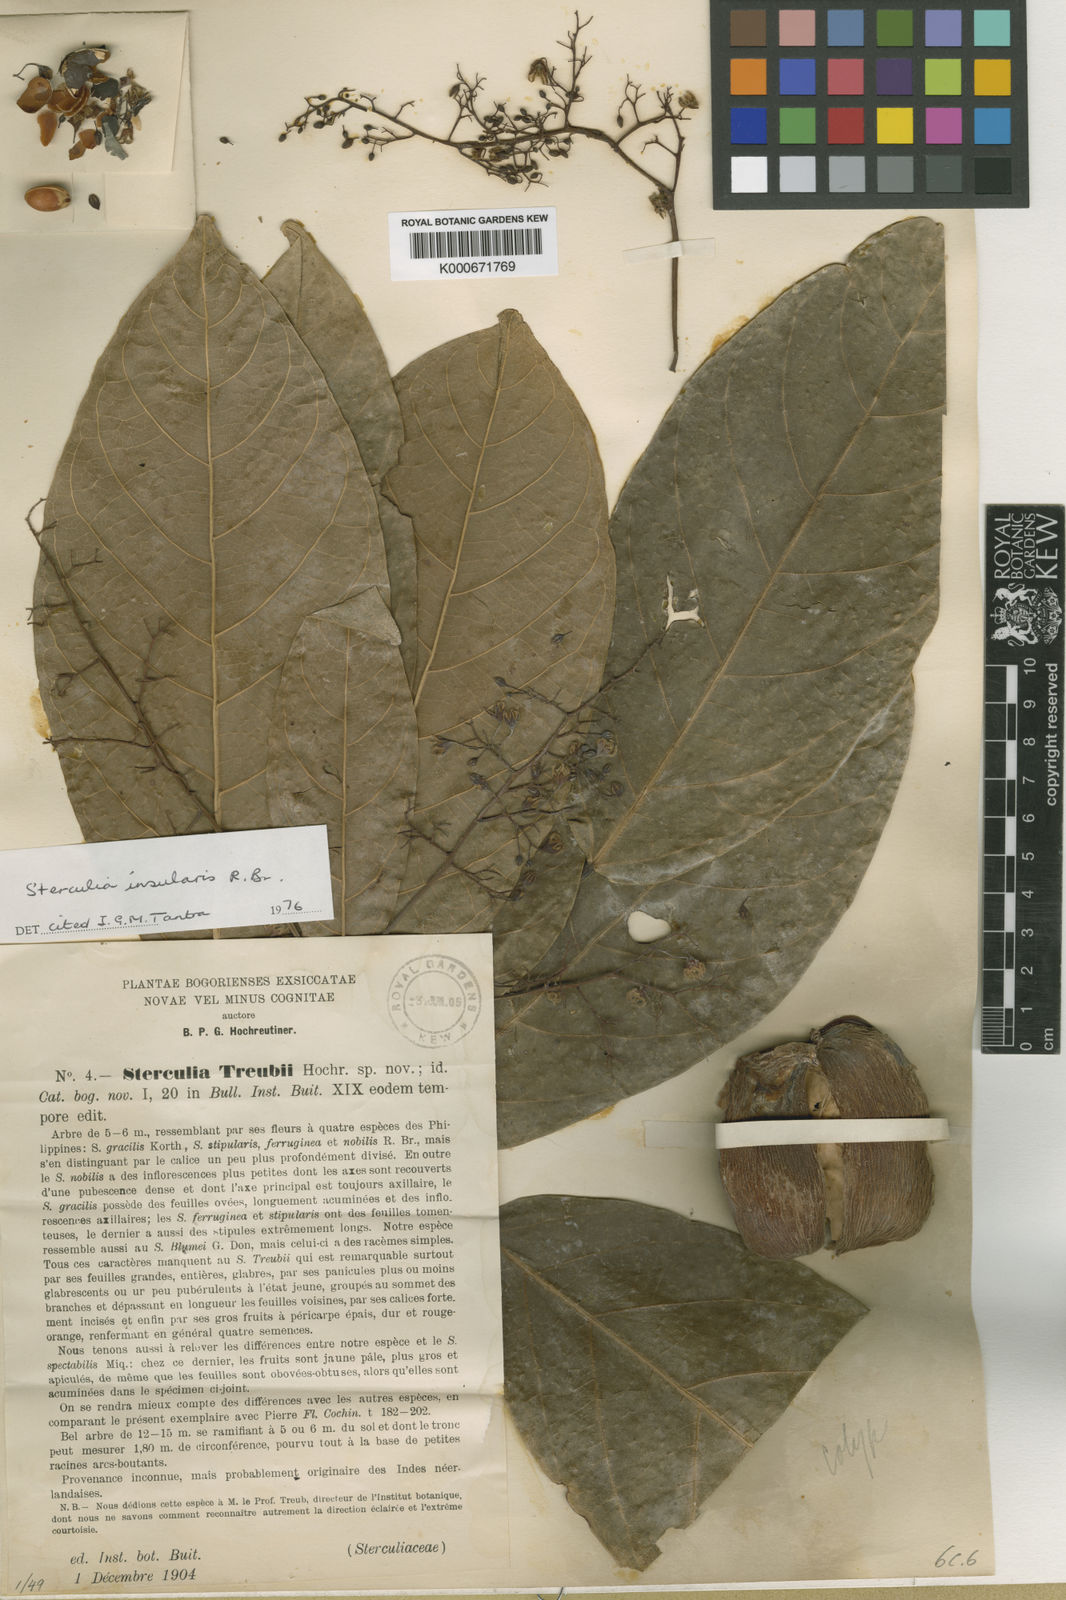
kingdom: Plantae
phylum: Tracheophyta
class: Magnoliopsida
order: Malvales
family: Malvaceae
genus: Sterculia
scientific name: Sterculia insularis
